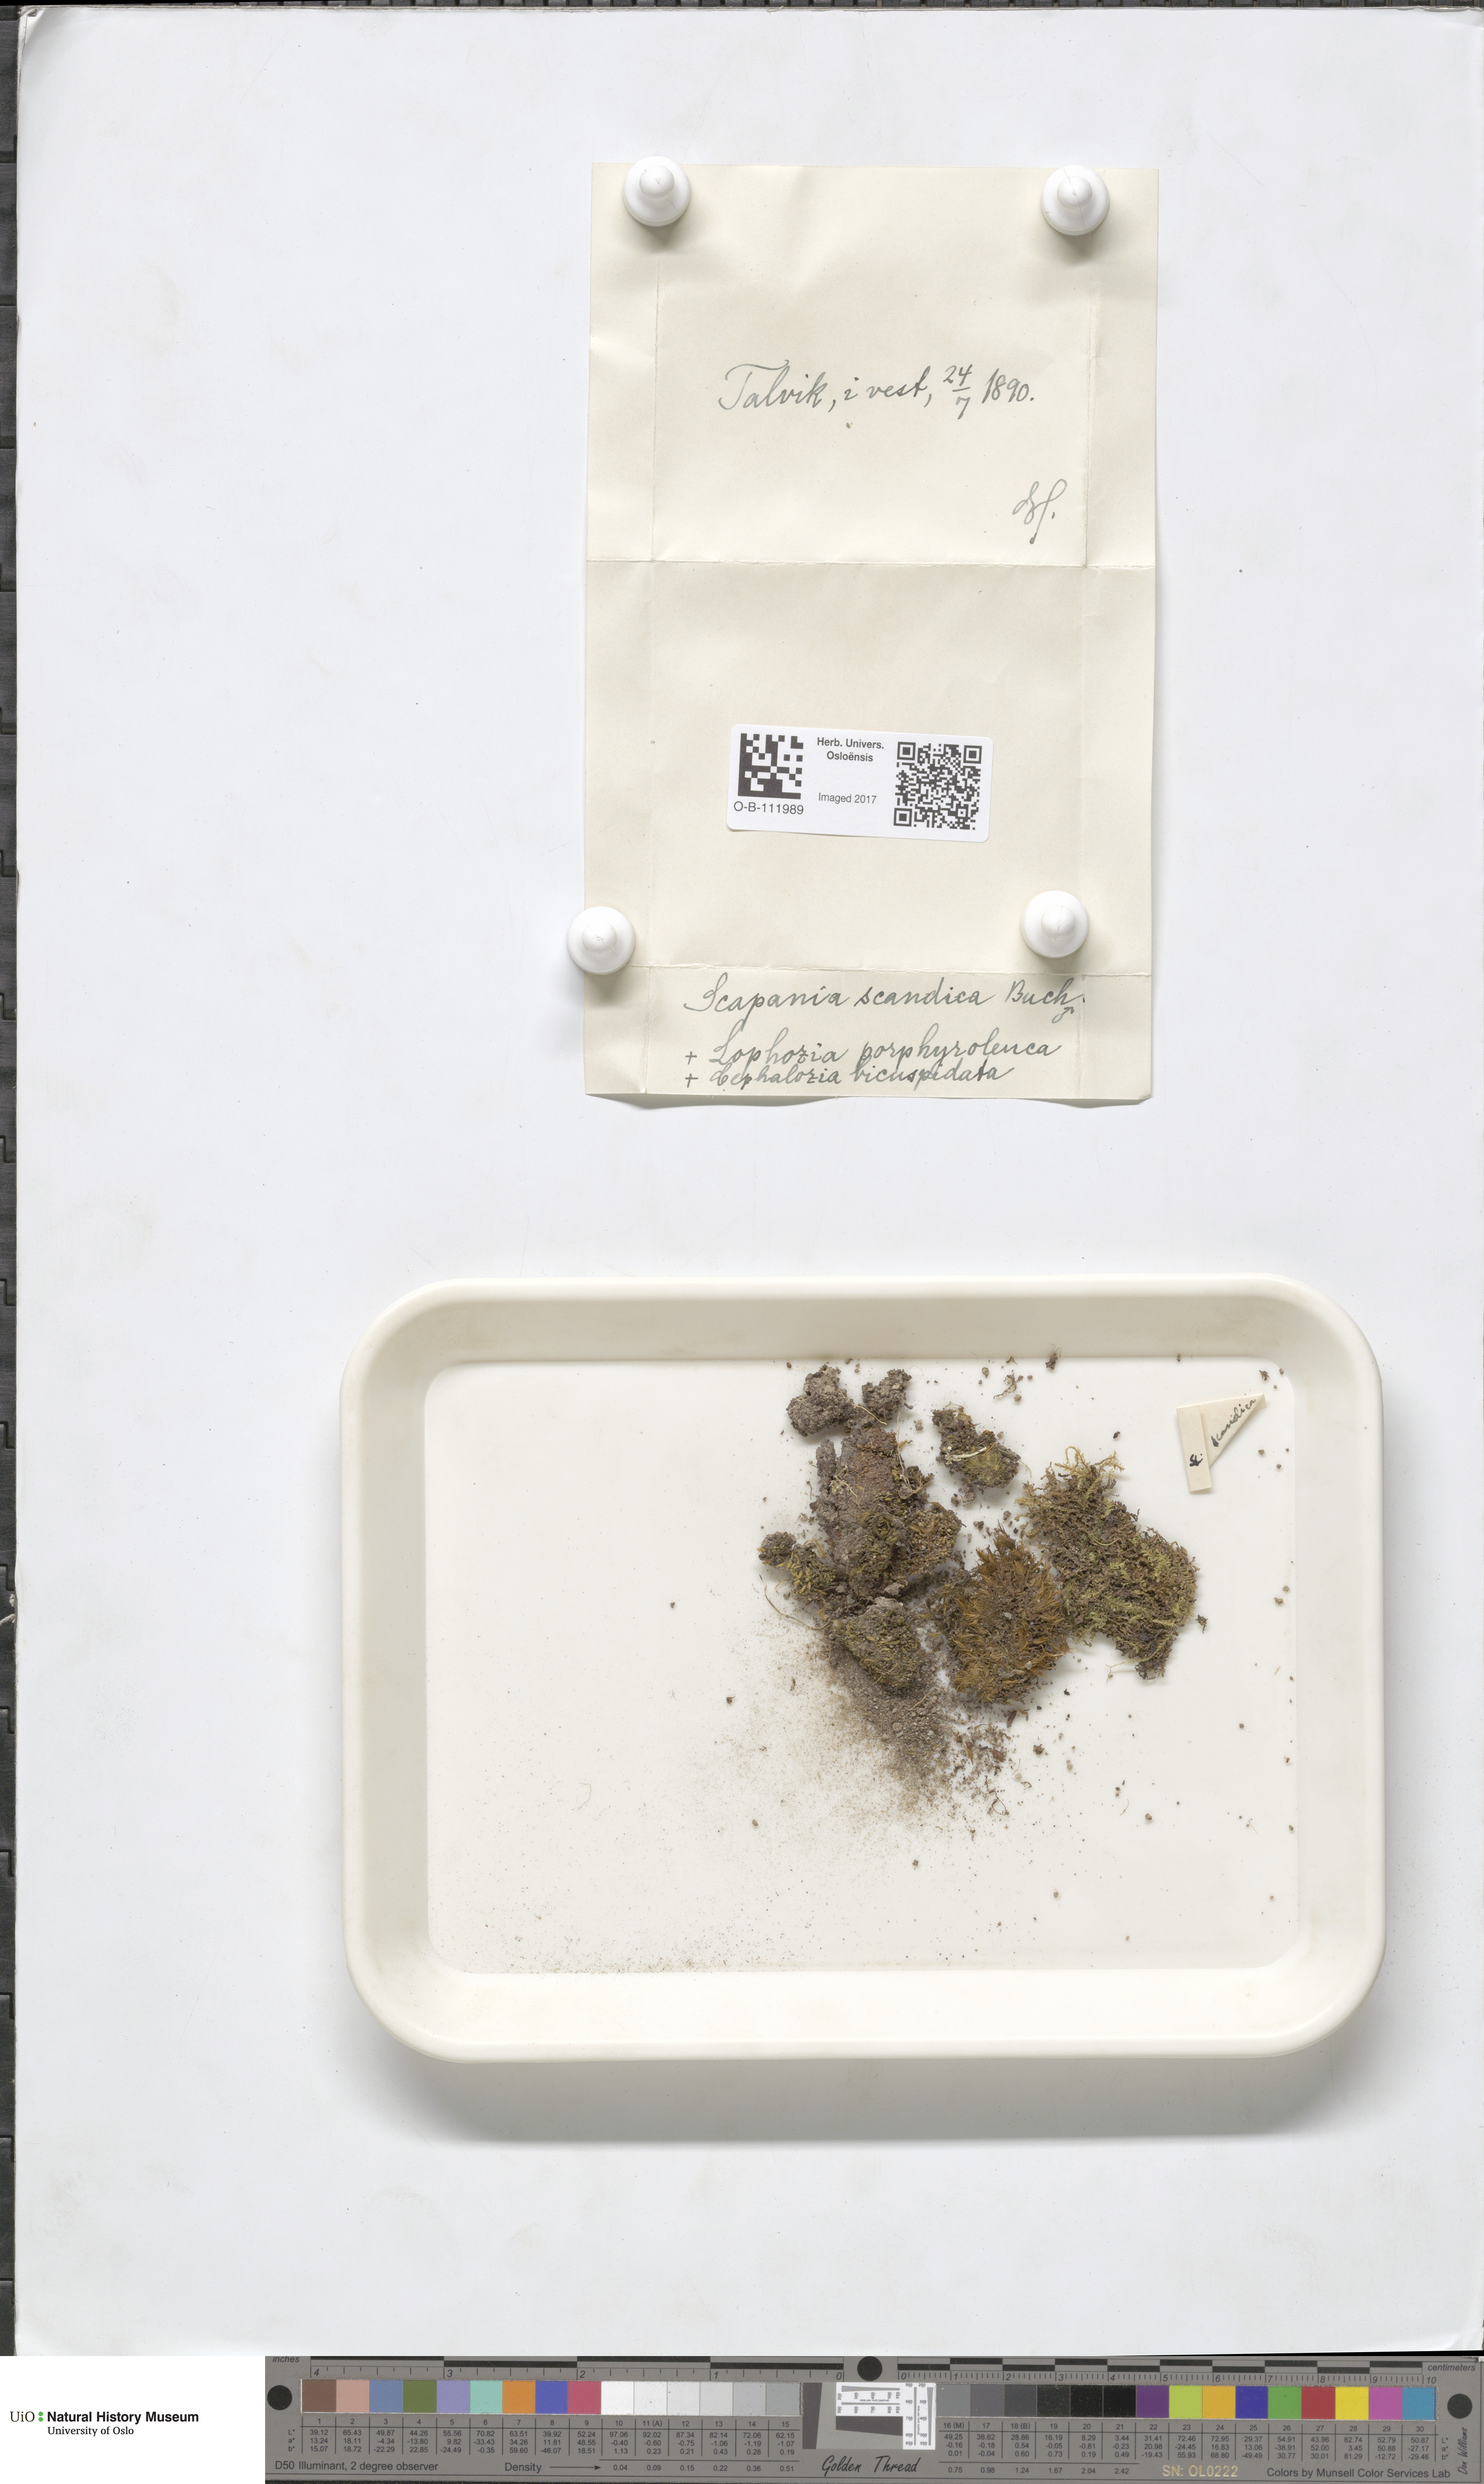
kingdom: Plantae
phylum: Marchantiophyta
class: Jungermanniopsida
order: Jungermanniales
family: Scapaniaceae
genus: Scapania
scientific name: Scapania scandica
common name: Norwegian earwort
